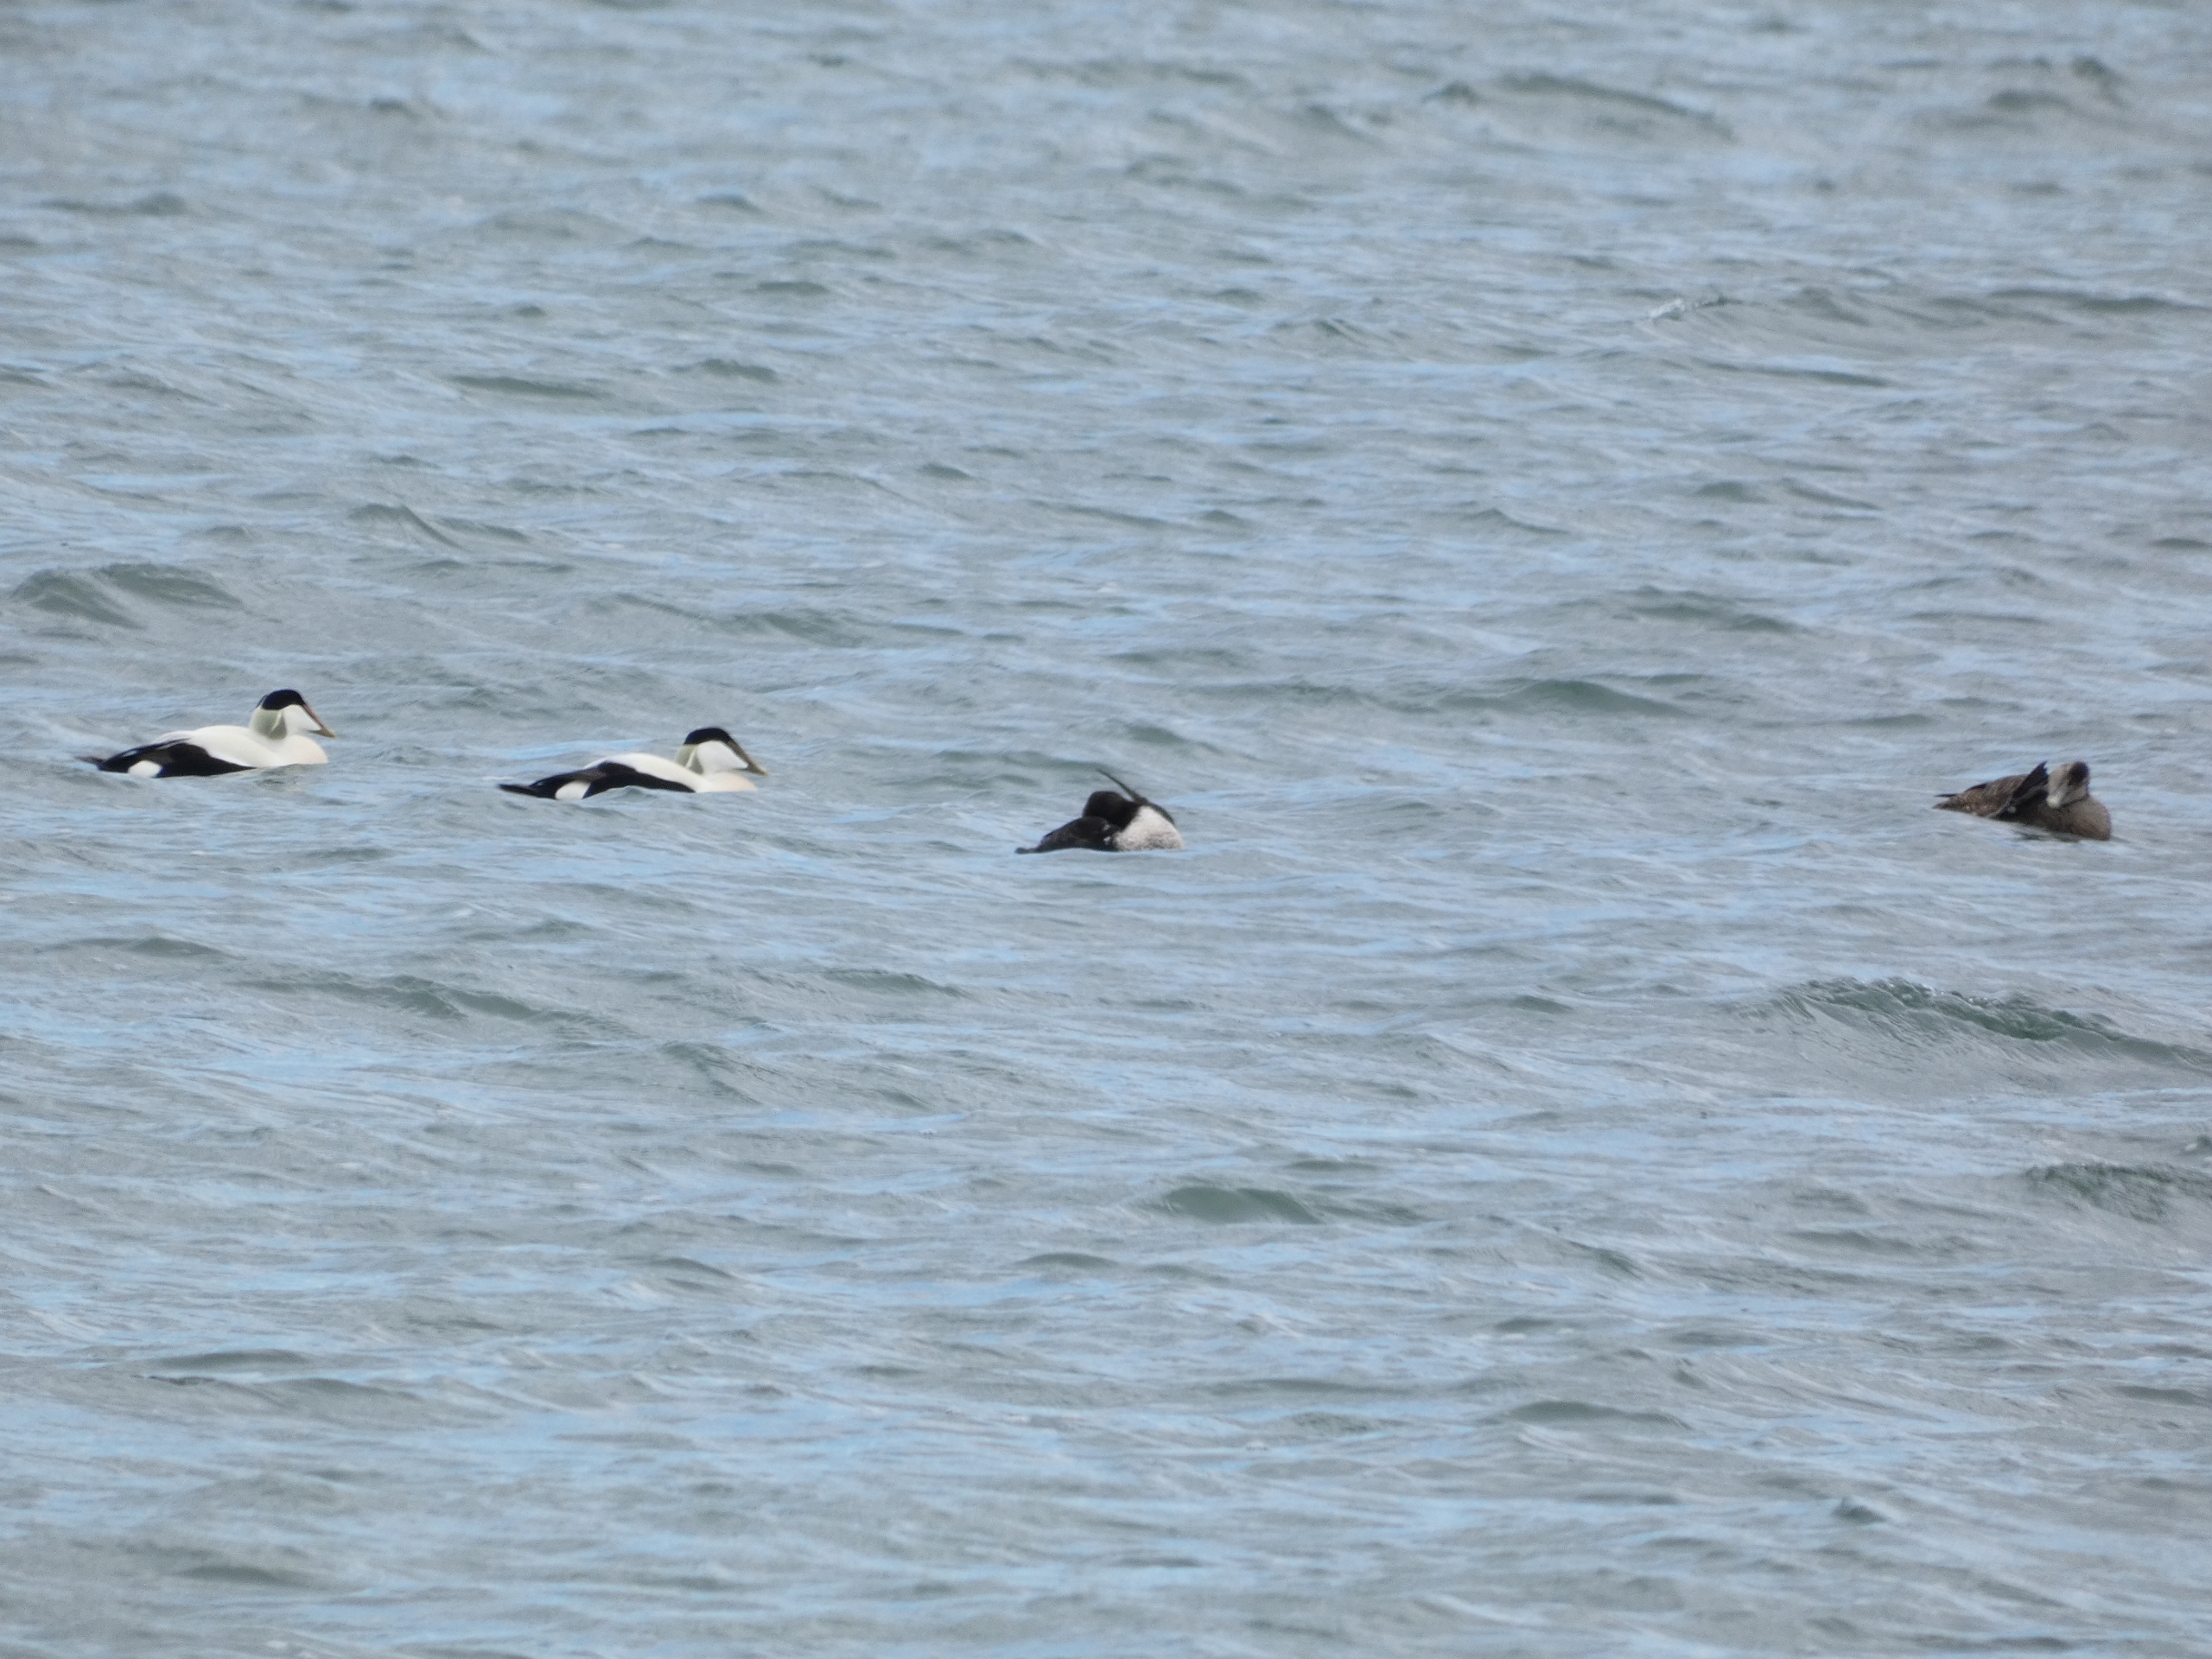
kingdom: Animalia
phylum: Chordata
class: Aves
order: Anseriformes
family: Anatidae
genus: Somateria
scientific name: Somateria mollissima
